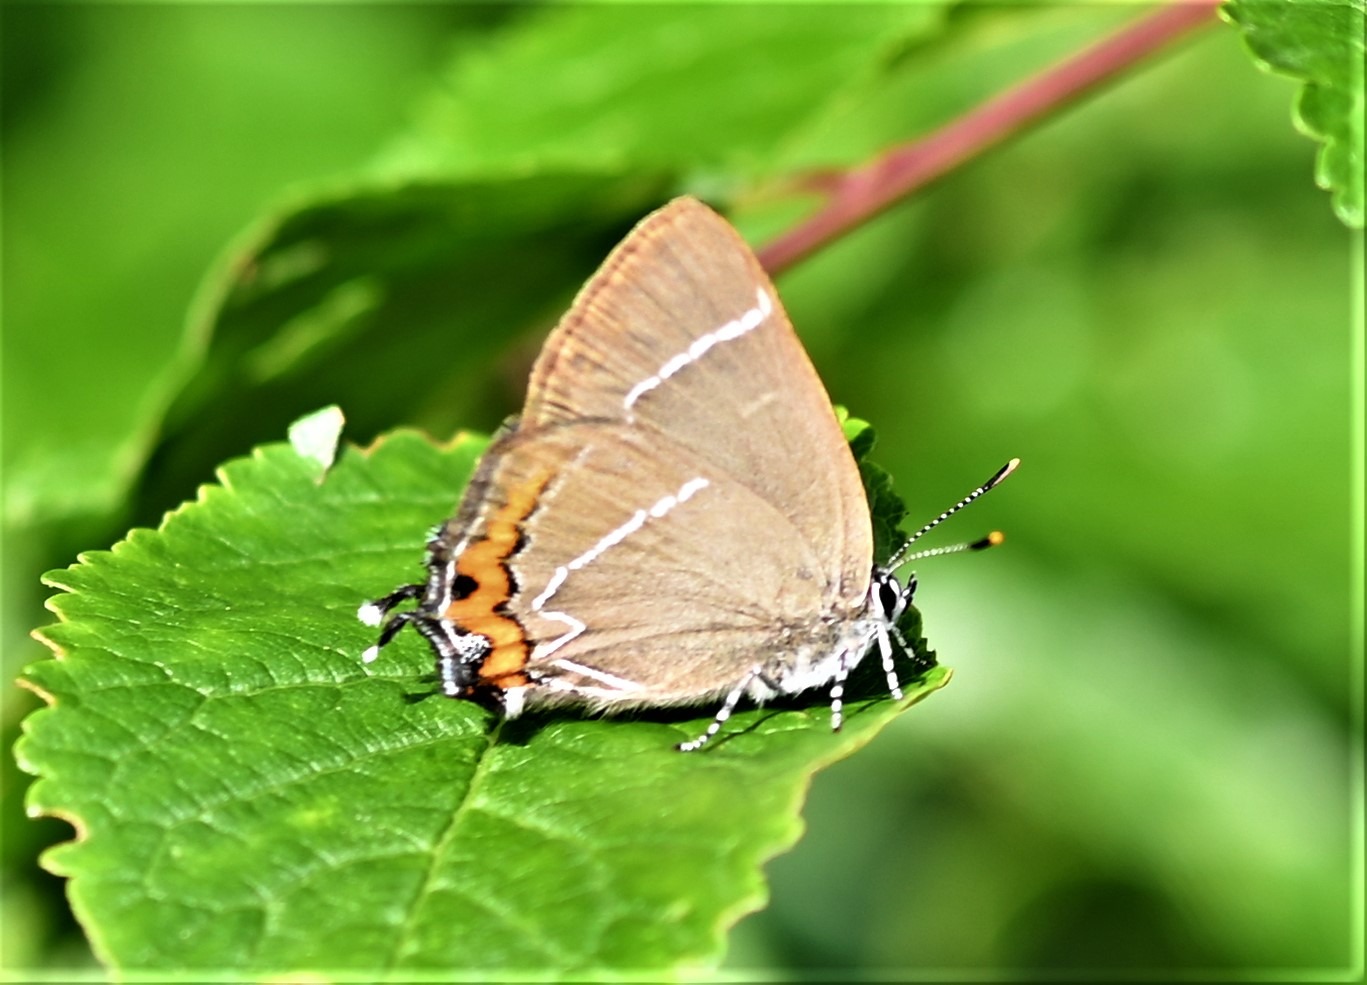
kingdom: Animalia
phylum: Arthropoda
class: Insecta
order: Lepidoptera
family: Lycaenidae
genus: Satyrium
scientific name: Satyrium w-album
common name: Det hvide W
